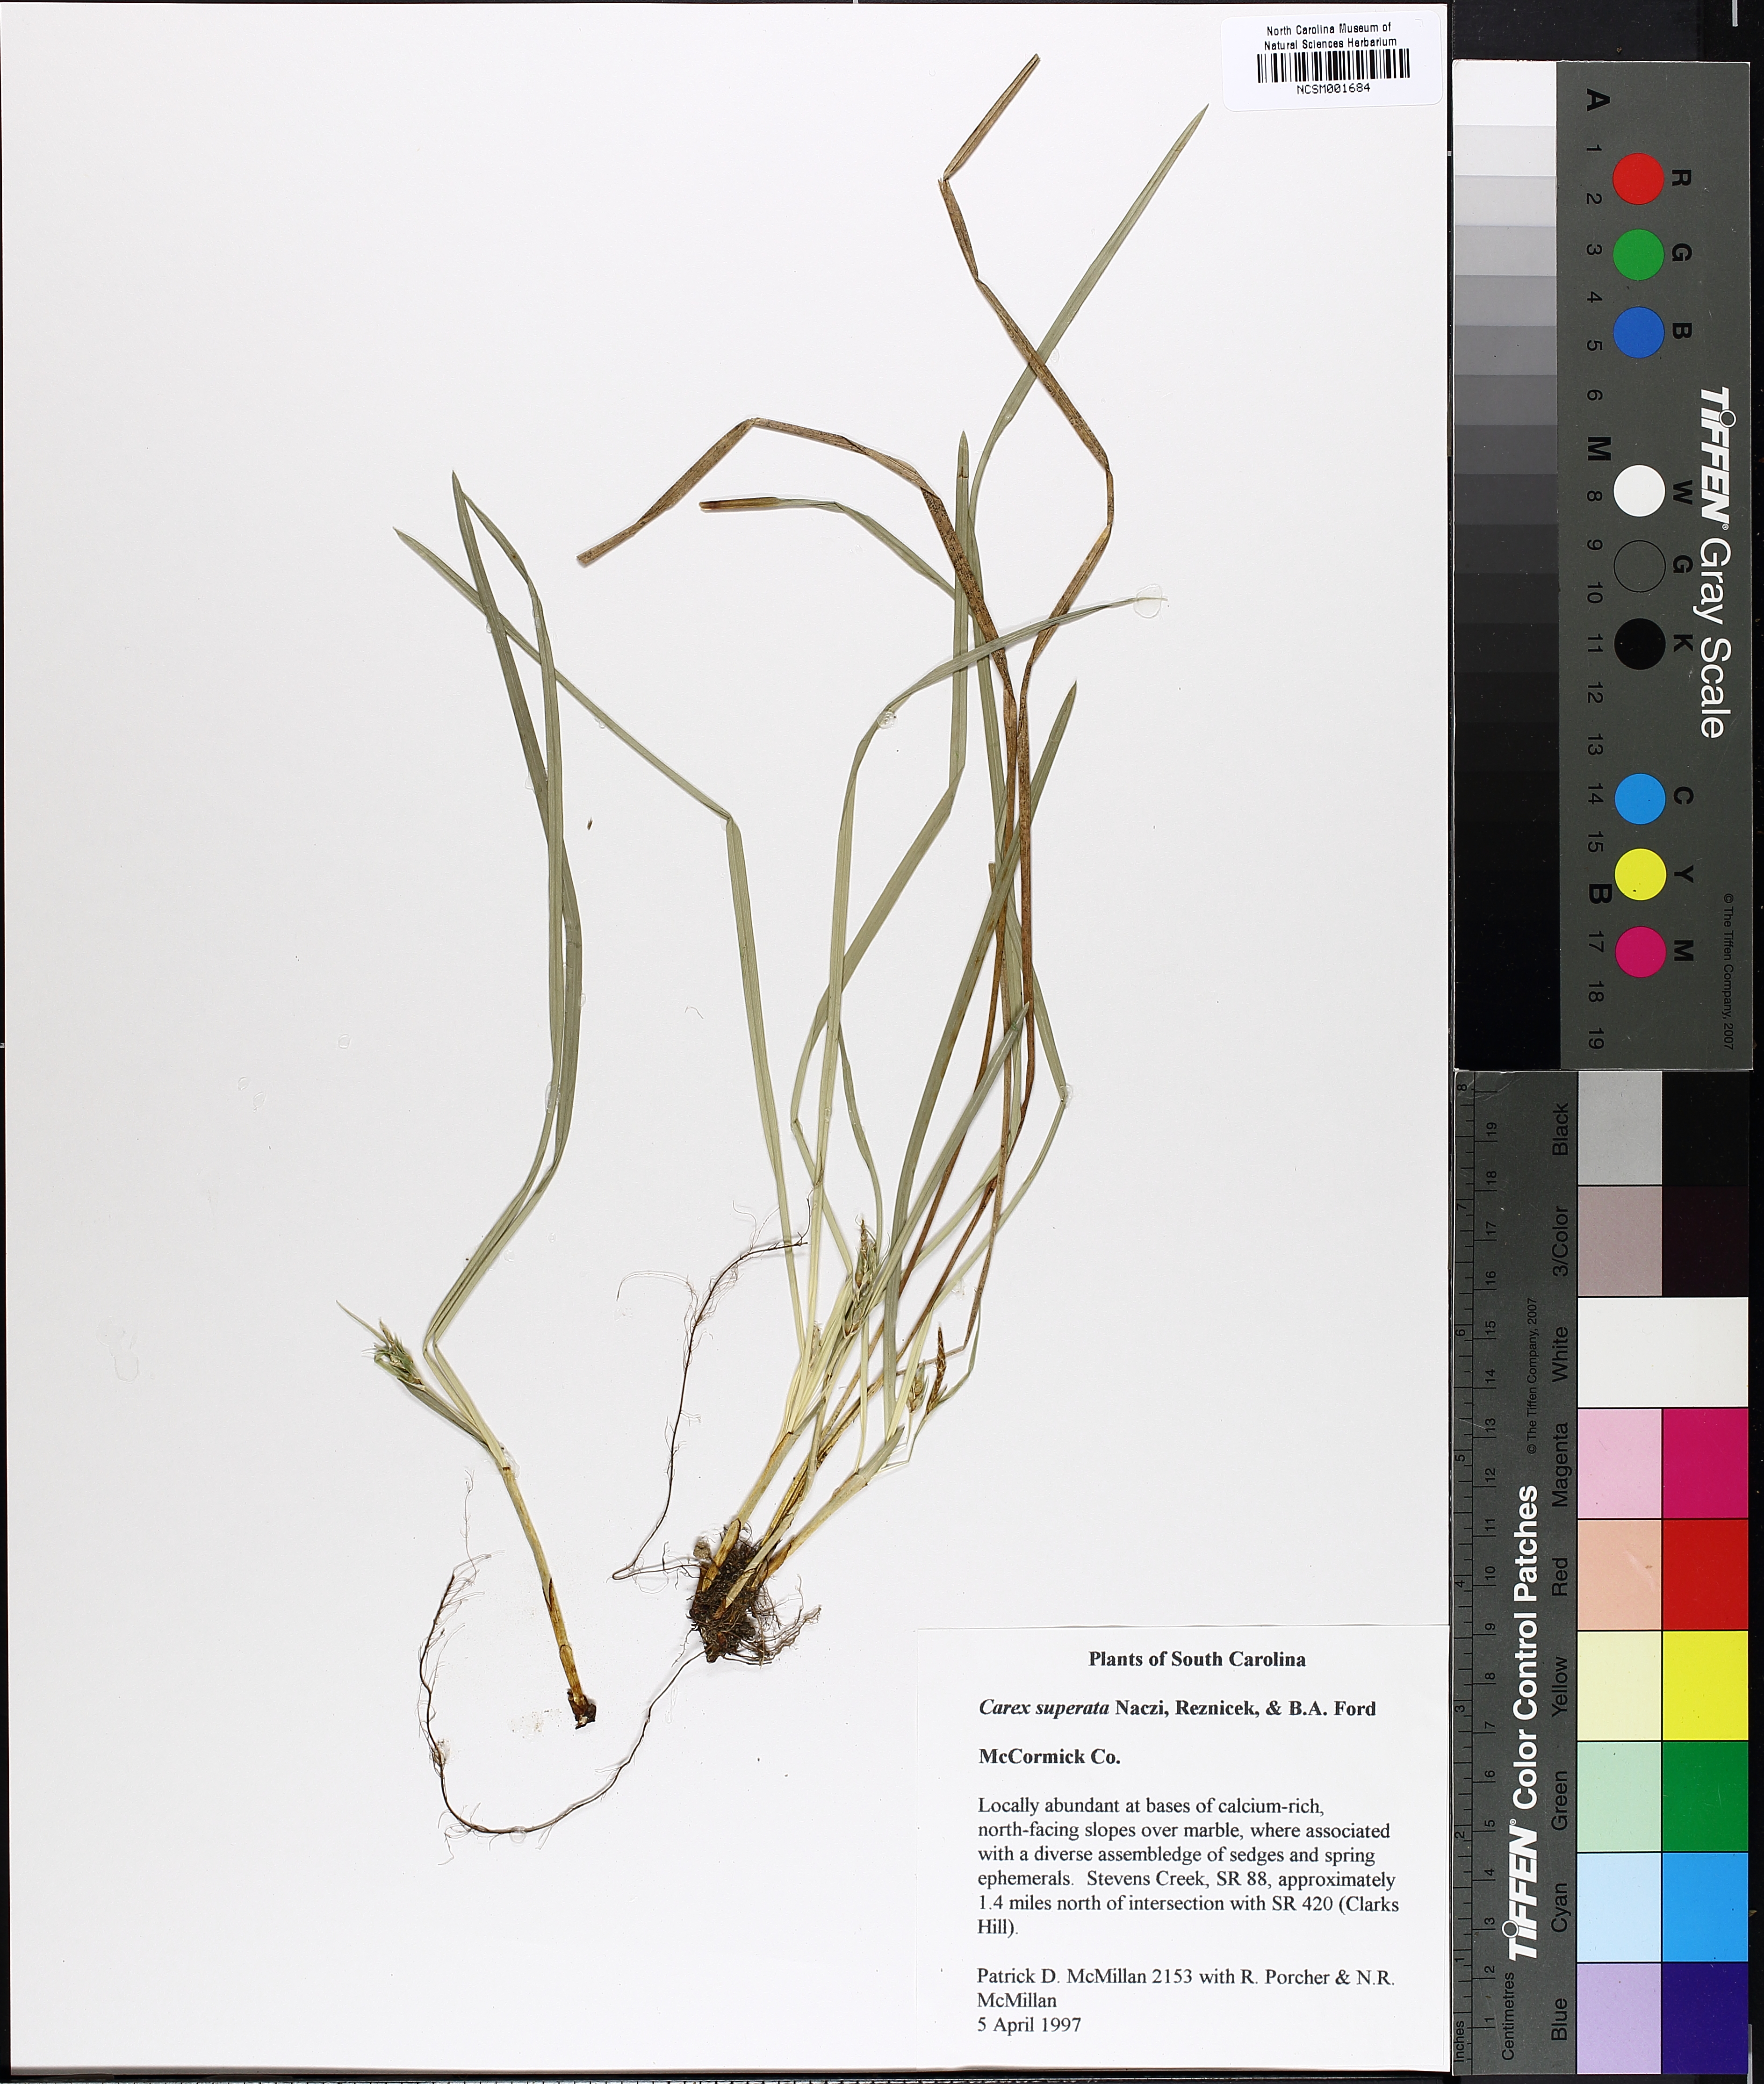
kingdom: Plantae
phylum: Tracheophyta
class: Liliopsida
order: Poales
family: Cyperaceae
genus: Carex
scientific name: Carex superata
